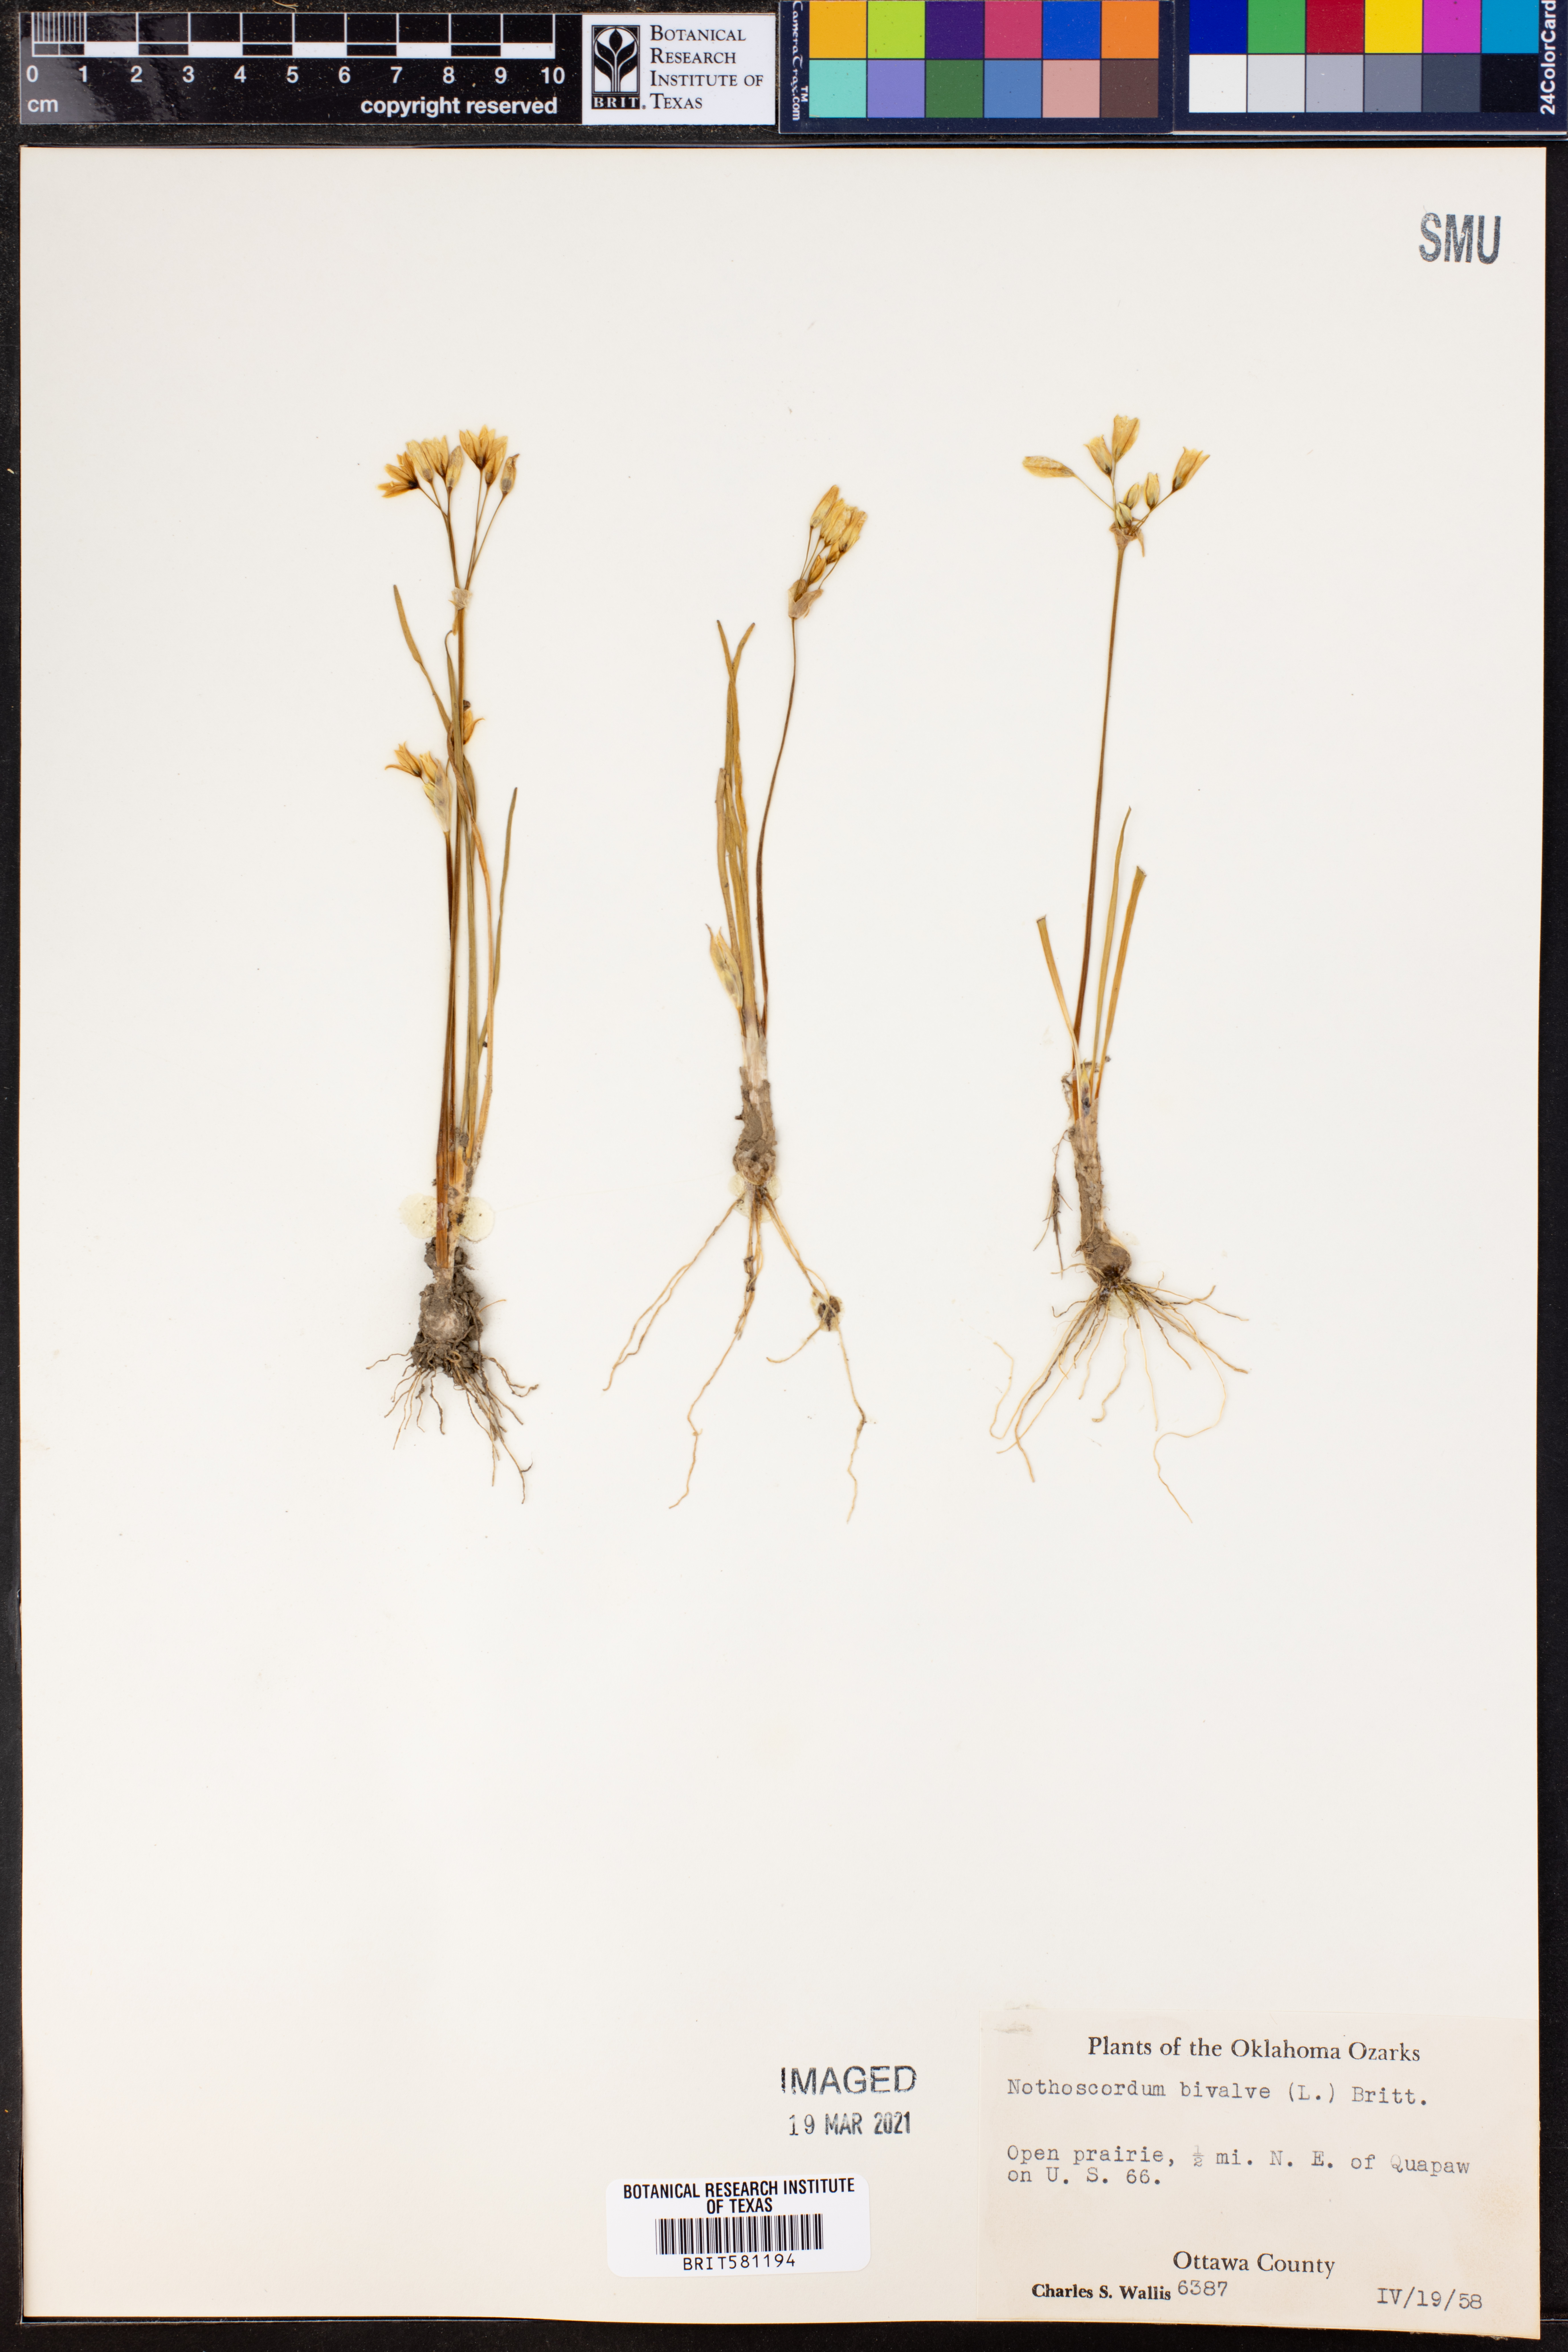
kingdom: Plantae
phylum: Tracheophyta
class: Liliopsida
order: Asparagales
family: Amaryllidaceae
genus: Nothoscordum
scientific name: Nothoscordum bivalve
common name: Crow-poison
